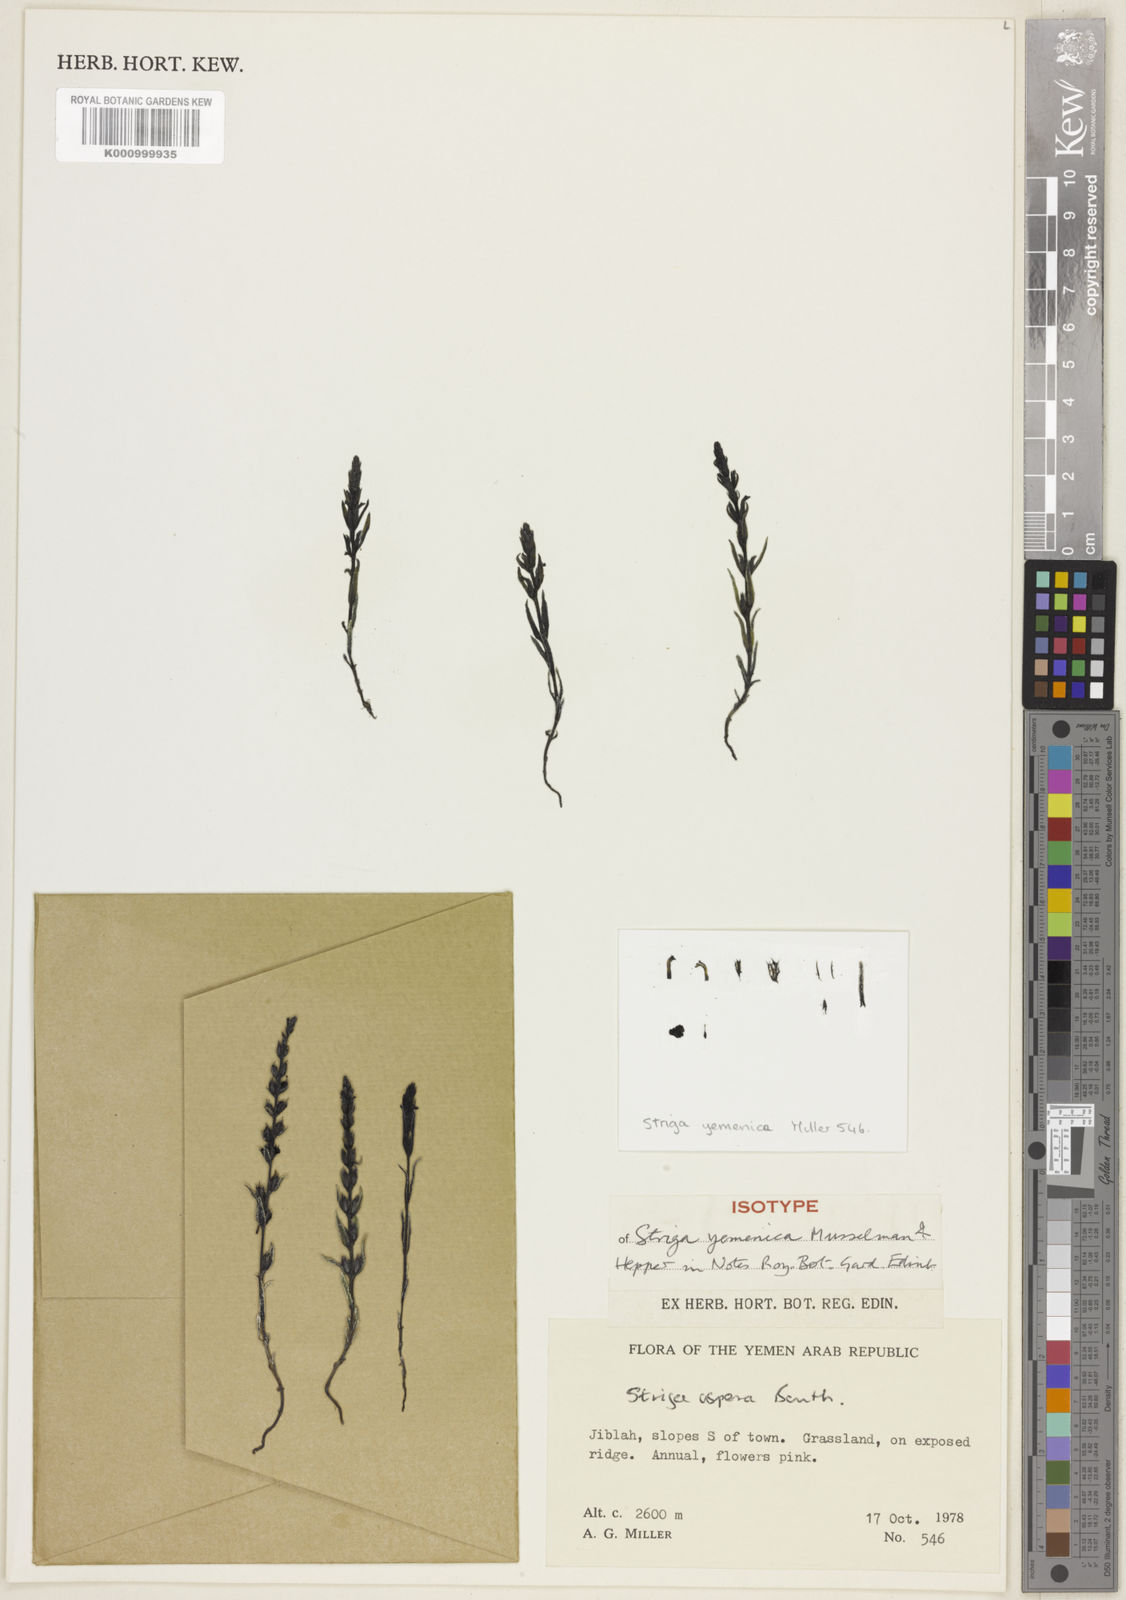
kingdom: Plantae
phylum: Tracheophyta
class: Magnoliopsida
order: Lamiales
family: Orobanchaceae
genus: Striga
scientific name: Striga yemenica
